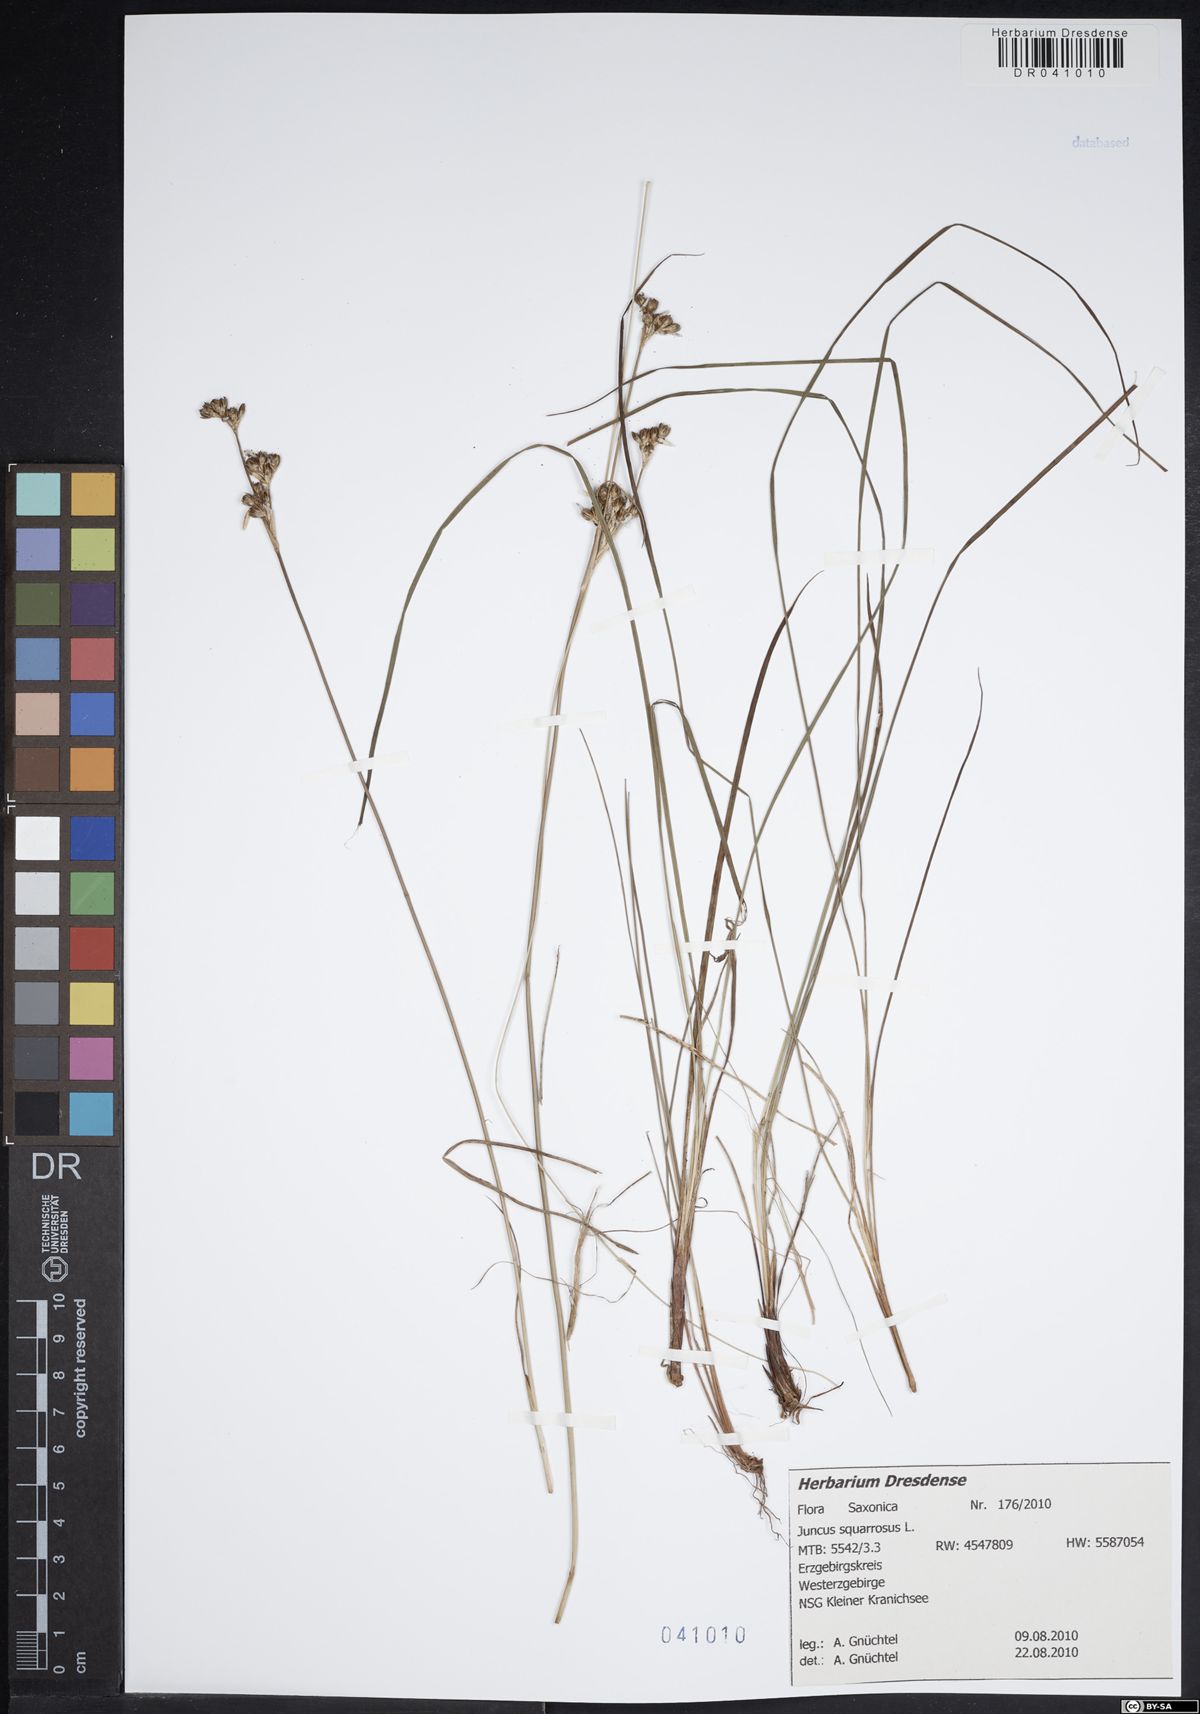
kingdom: Plantae
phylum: Tracheophyta
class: Liliopsida
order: Poales
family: Juncaceae
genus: Juncus
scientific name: Juncus squarrosus
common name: Heath rush
